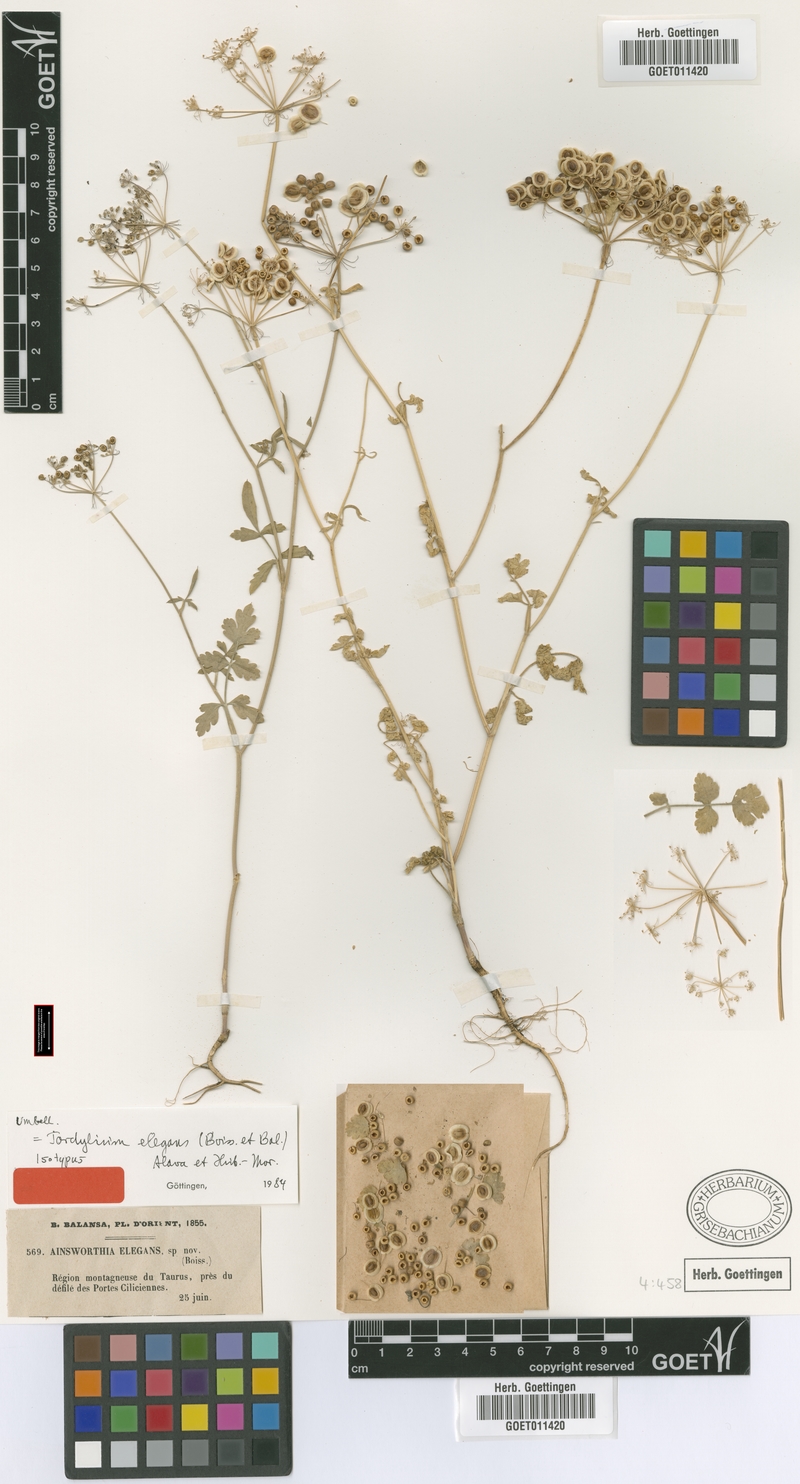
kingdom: Plantae
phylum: Tracheophyta
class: Magnoliopsida
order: Apiales
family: Apiaceae
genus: Ainsworthia
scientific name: Ainsworthia elegans
